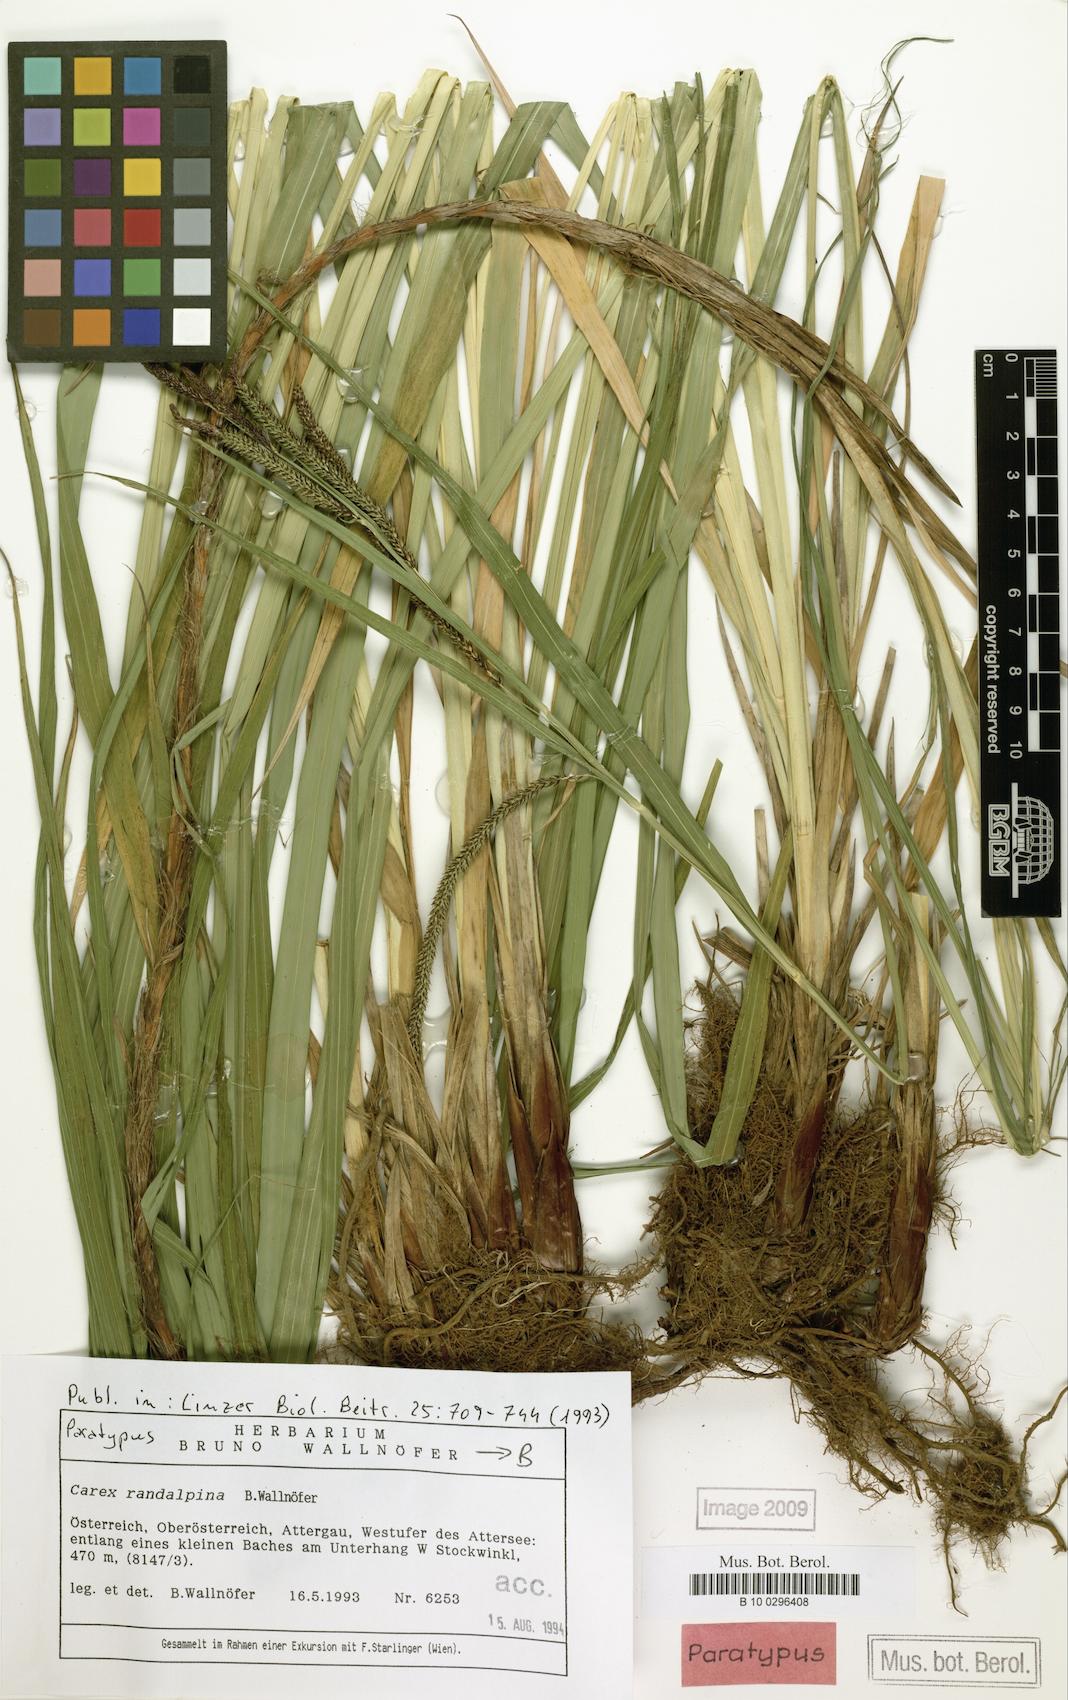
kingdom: Plantae
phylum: Tracheophyta
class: Liliopsida
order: Poales
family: Cyperaceae
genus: Carex
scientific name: Carex randalpina
